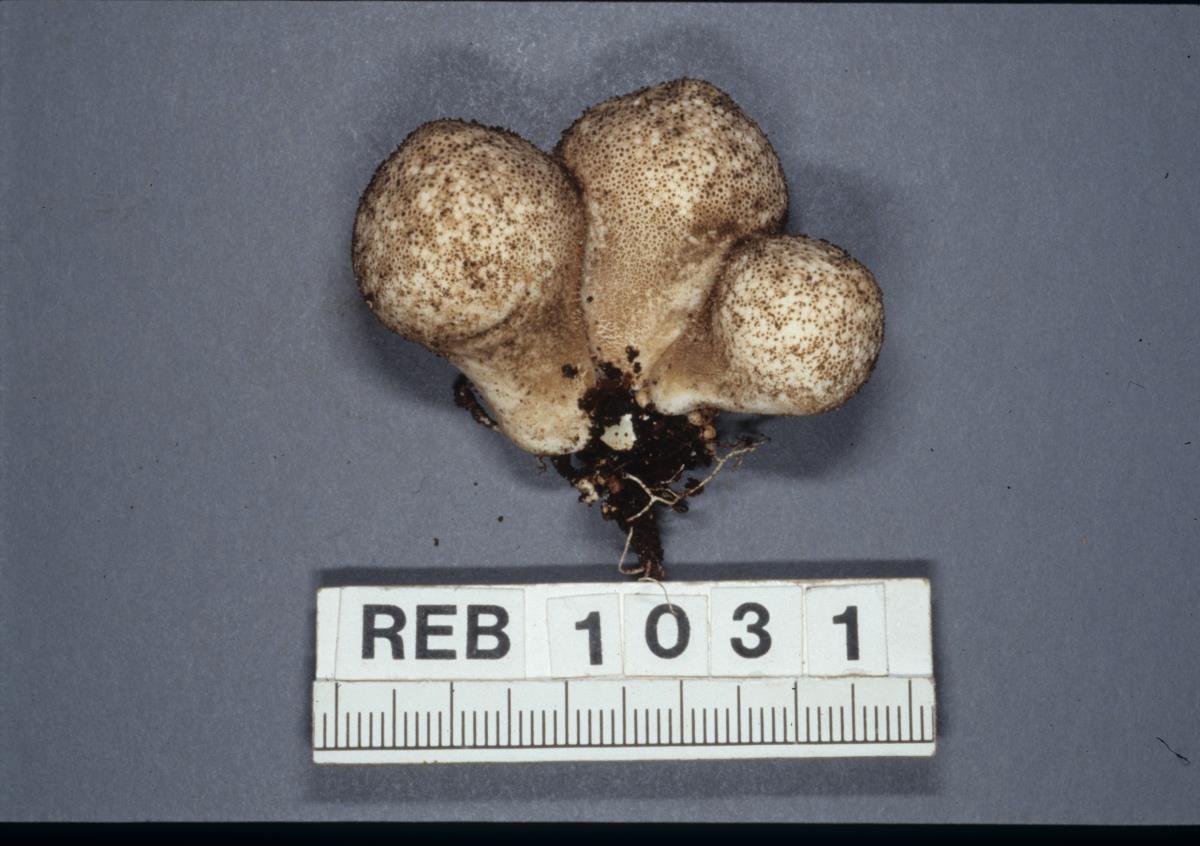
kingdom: Fungi
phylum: Basidiomycota
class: Agaricomycetes
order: Agaricales
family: Agaricaceae
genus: Lycoperdon
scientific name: Lycoperdon
